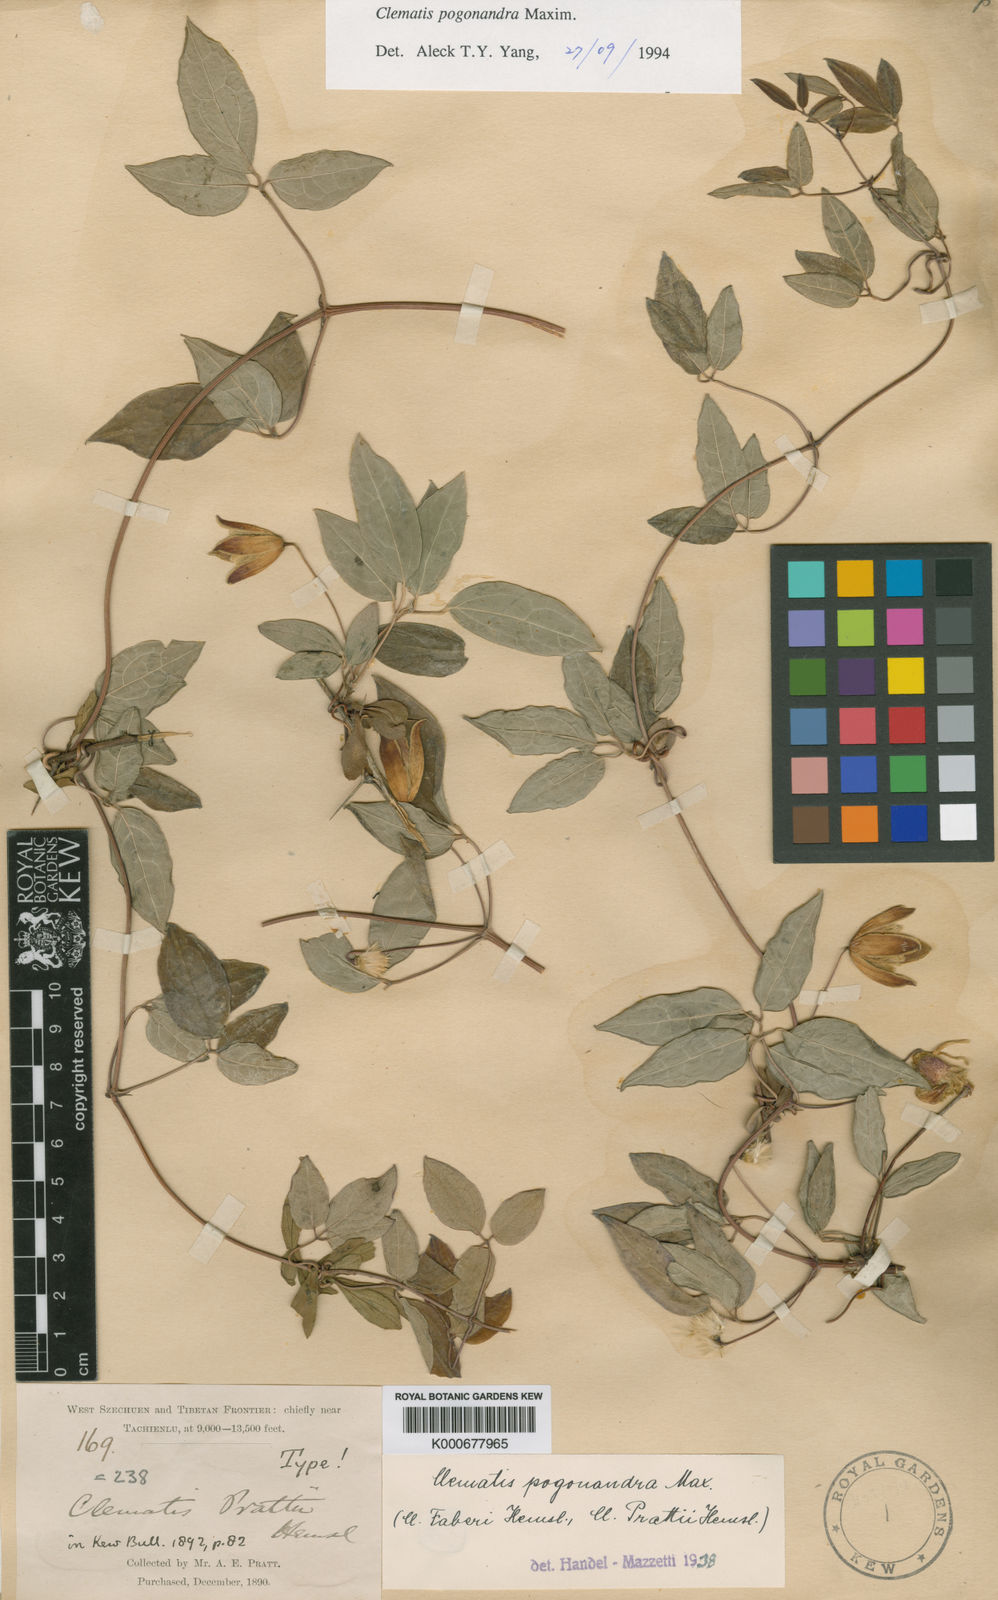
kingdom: Plantae
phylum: Tracheophyta
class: Magnoliopsida
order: Ranunculales
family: Ranunculaceae
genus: Clematis
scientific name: Clematis pogonandra
